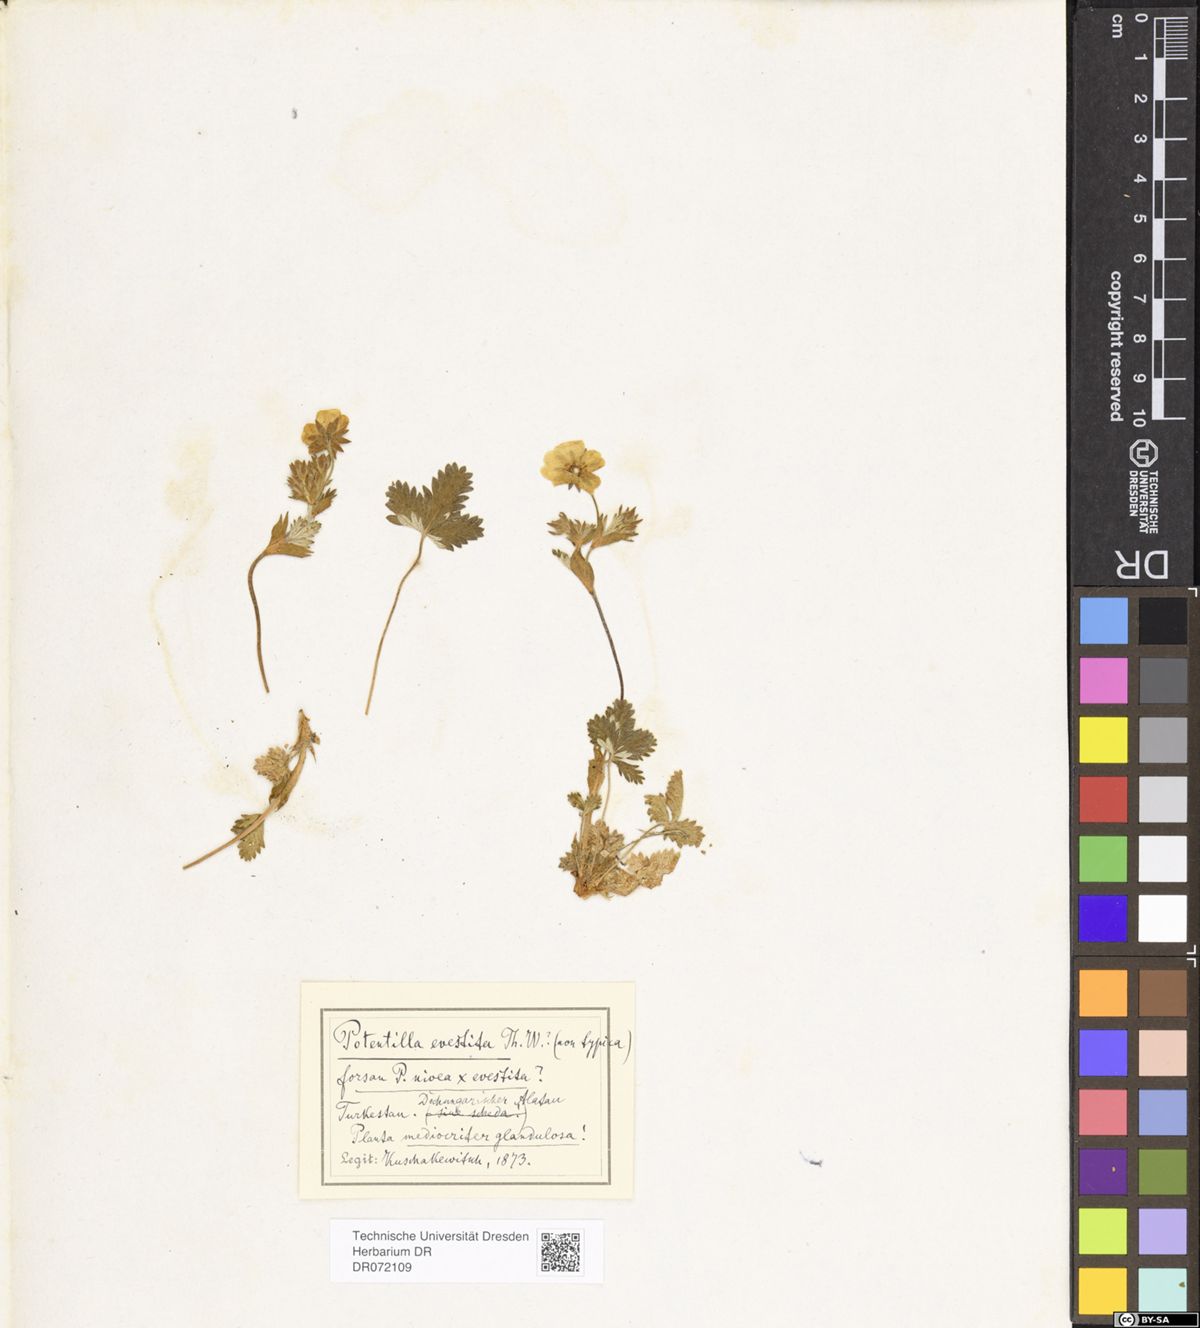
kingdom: Plantae
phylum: Tracheophyta
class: Magnoliopsida
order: Rosales
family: Rosaceae
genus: Potentilla
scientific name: Potentilla evestita
